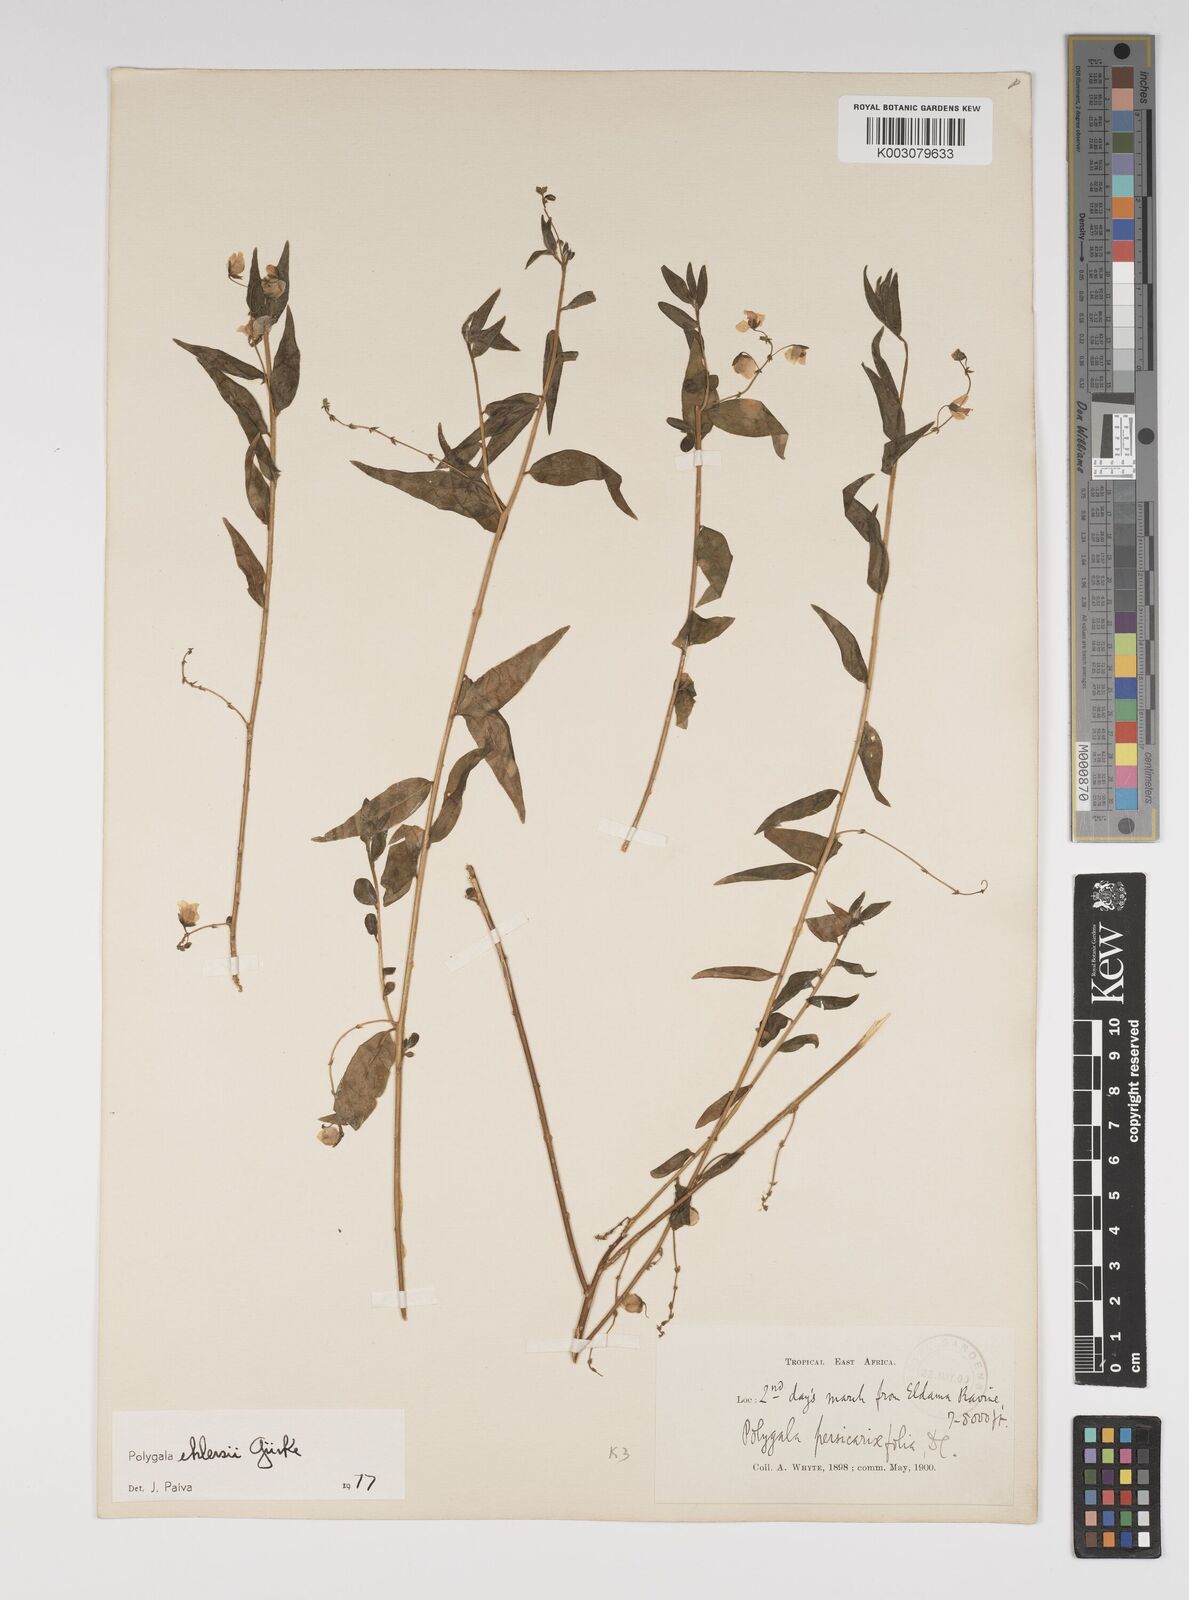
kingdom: Plantae
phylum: Tracheophyta
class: Magnoliopsida
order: Fabales
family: Polygalaceae
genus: Polygala
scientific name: Polygala ehlersii
